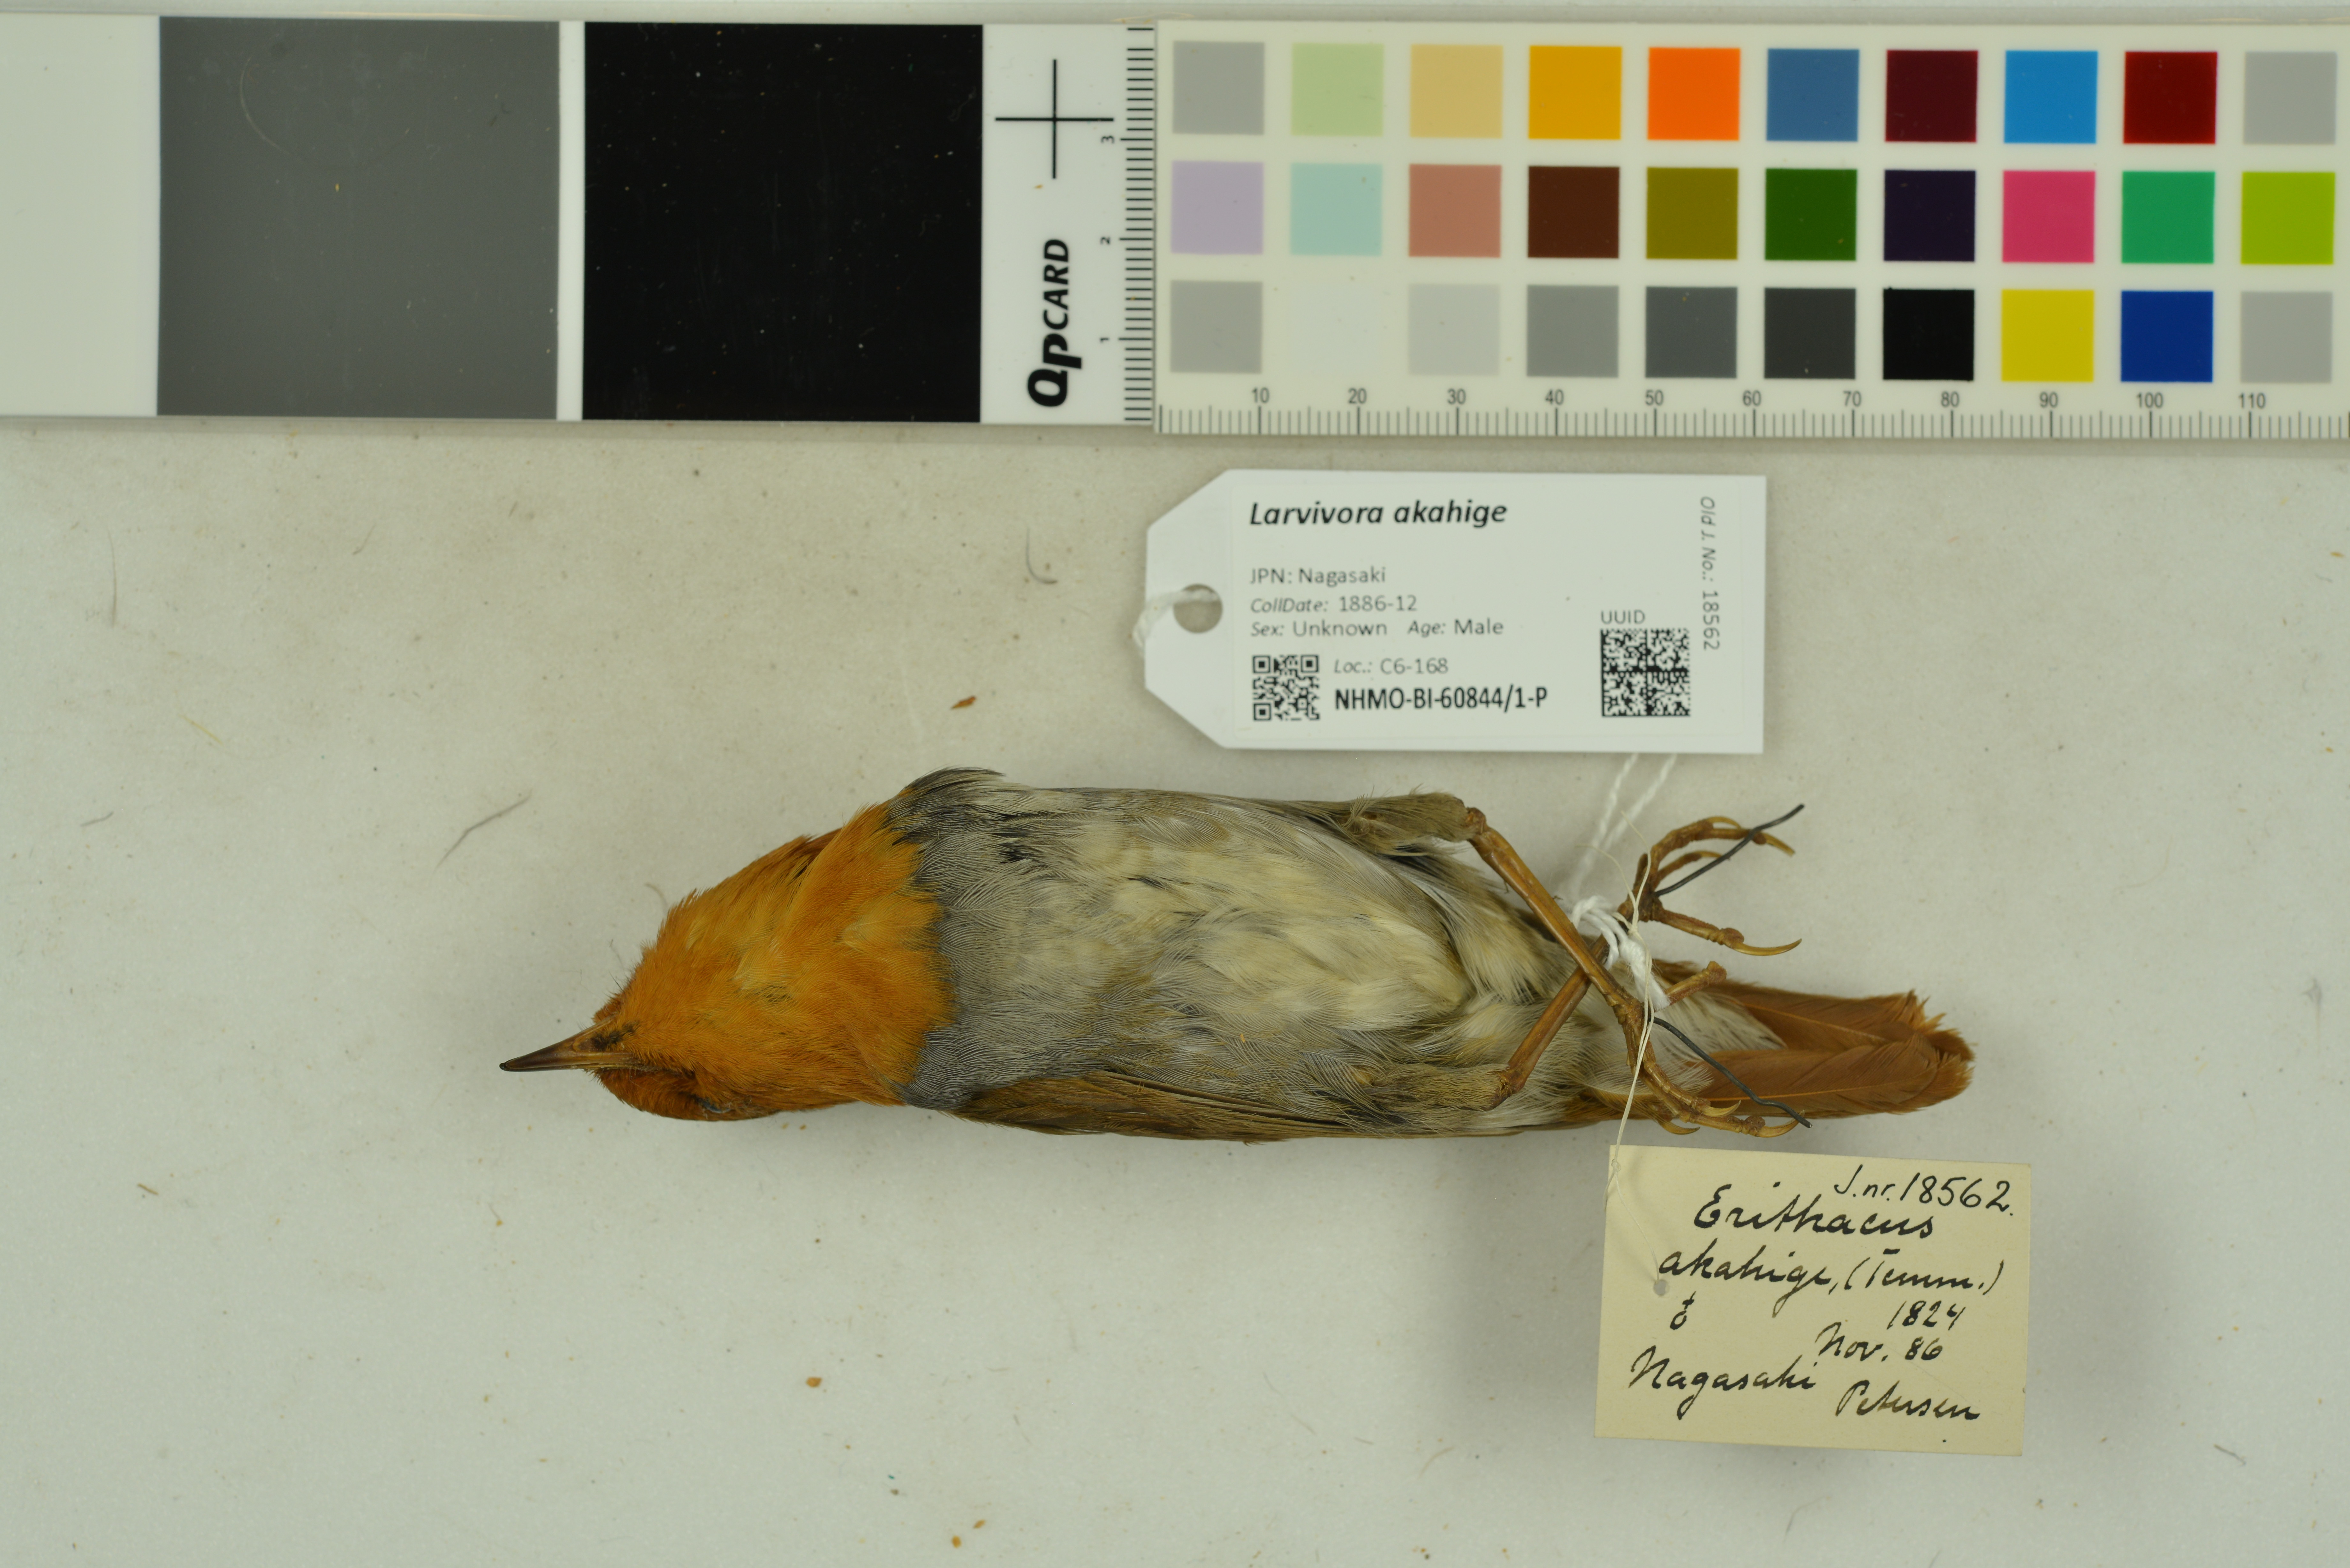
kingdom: Animalia
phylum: Chordata
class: Aves
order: Passeriformes
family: Muscicapidae
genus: Erithacus
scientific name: Erithacus akahige
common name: Japanese robin
